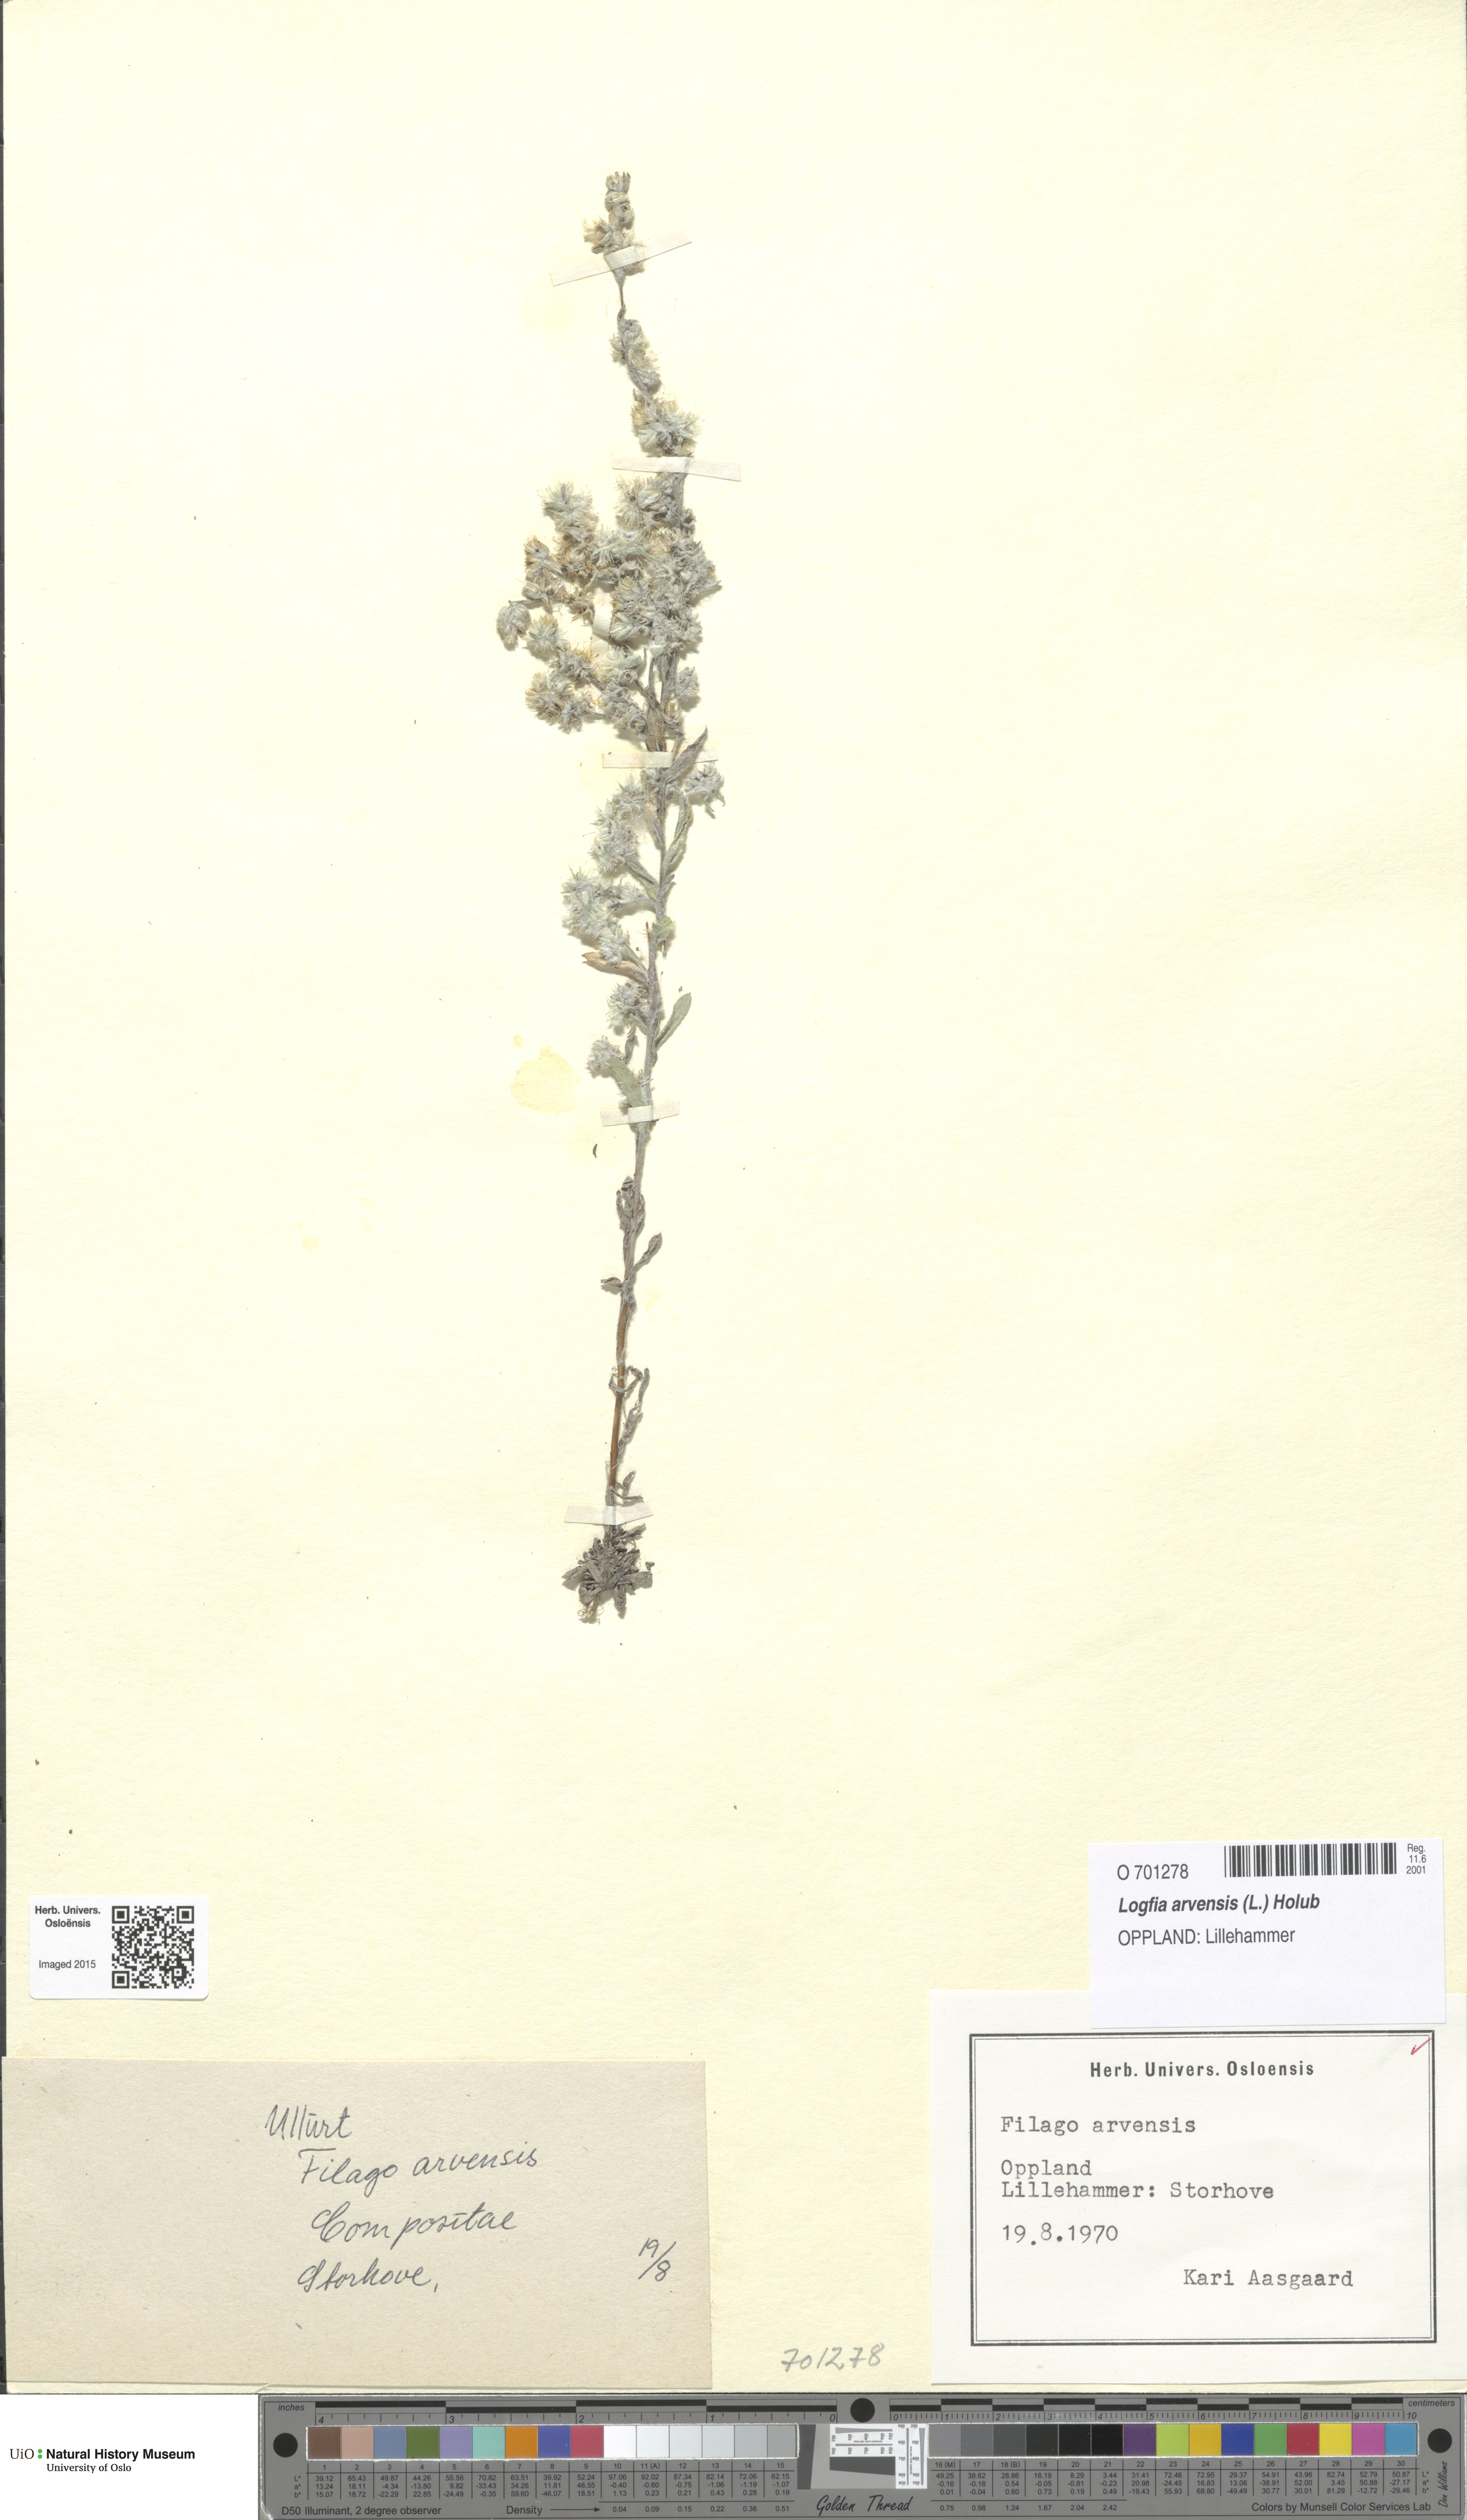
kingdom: Plantae
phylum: Tracheophyta
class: Magnoliopsida
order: Asterales
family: Asteraceae
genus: Filago
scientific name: Filago arvensis
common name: Field cudweed
